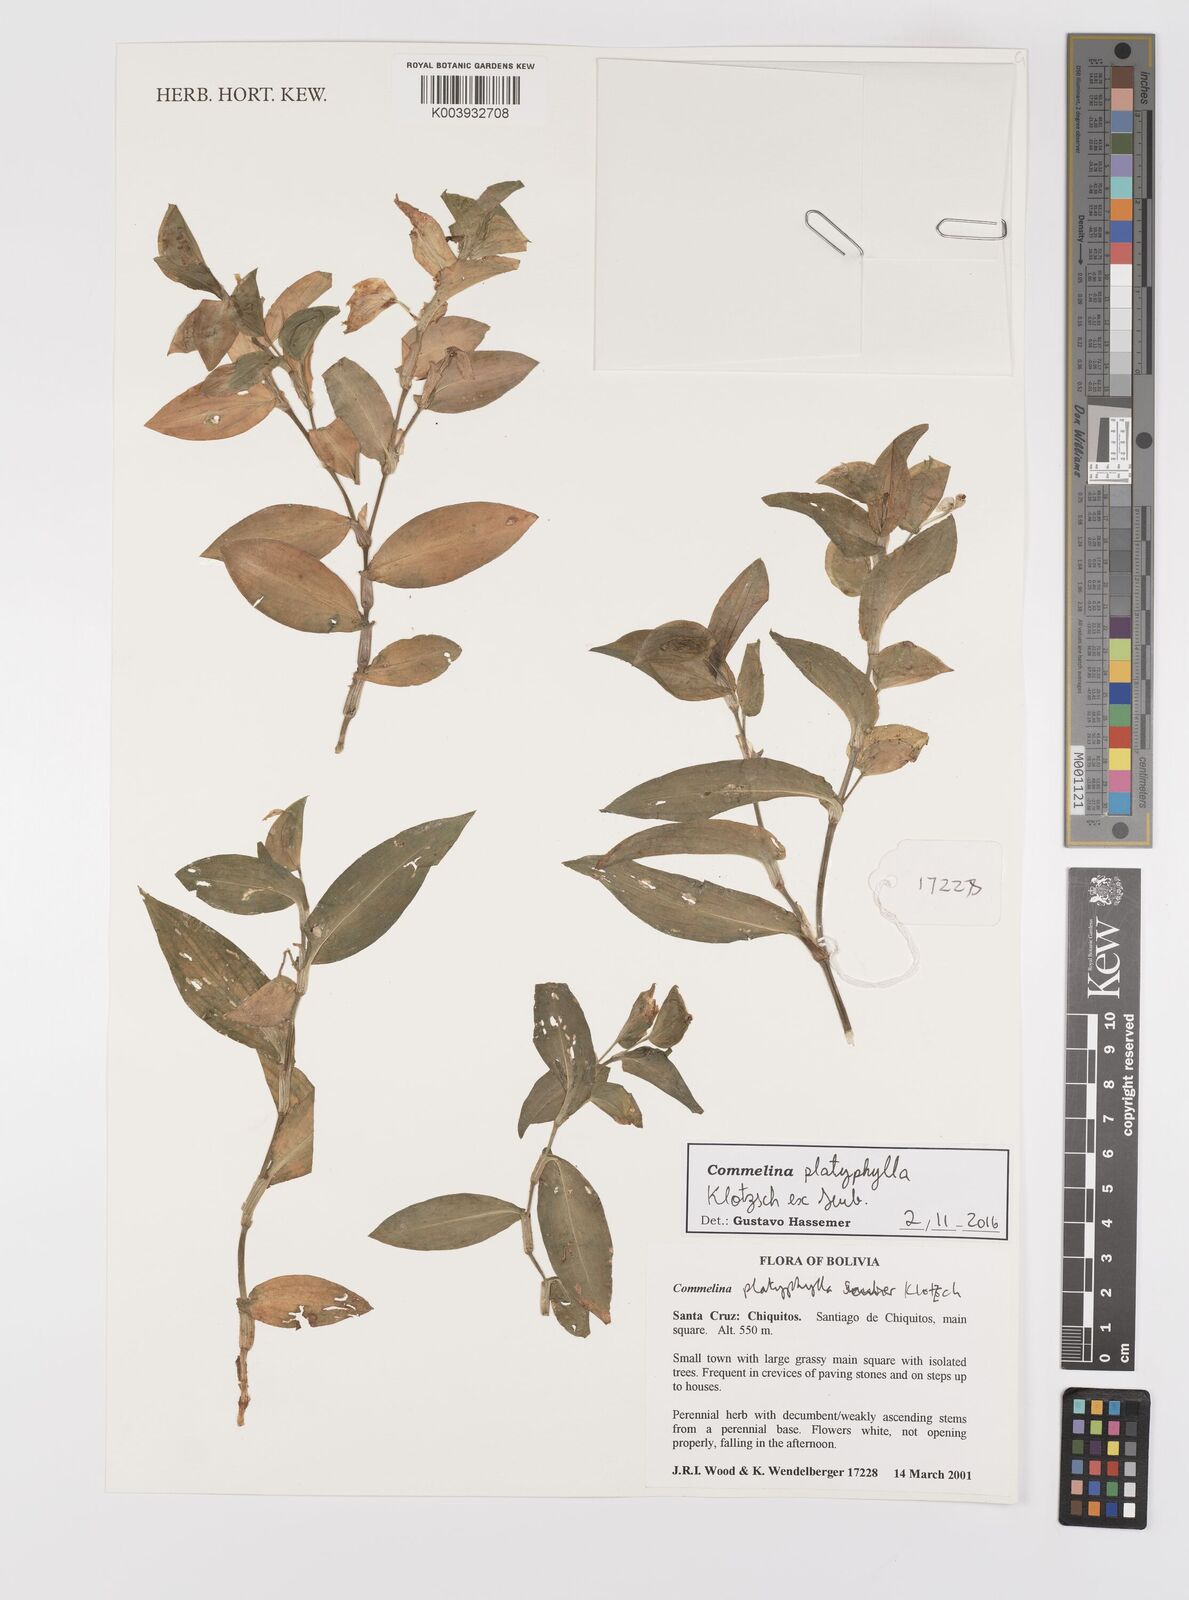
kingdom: Plantae
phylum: Tracheophyta
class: Liliopsida
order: Commelinales
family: Commelinaceae
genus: Commelina
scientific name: Commelina platyphylla
